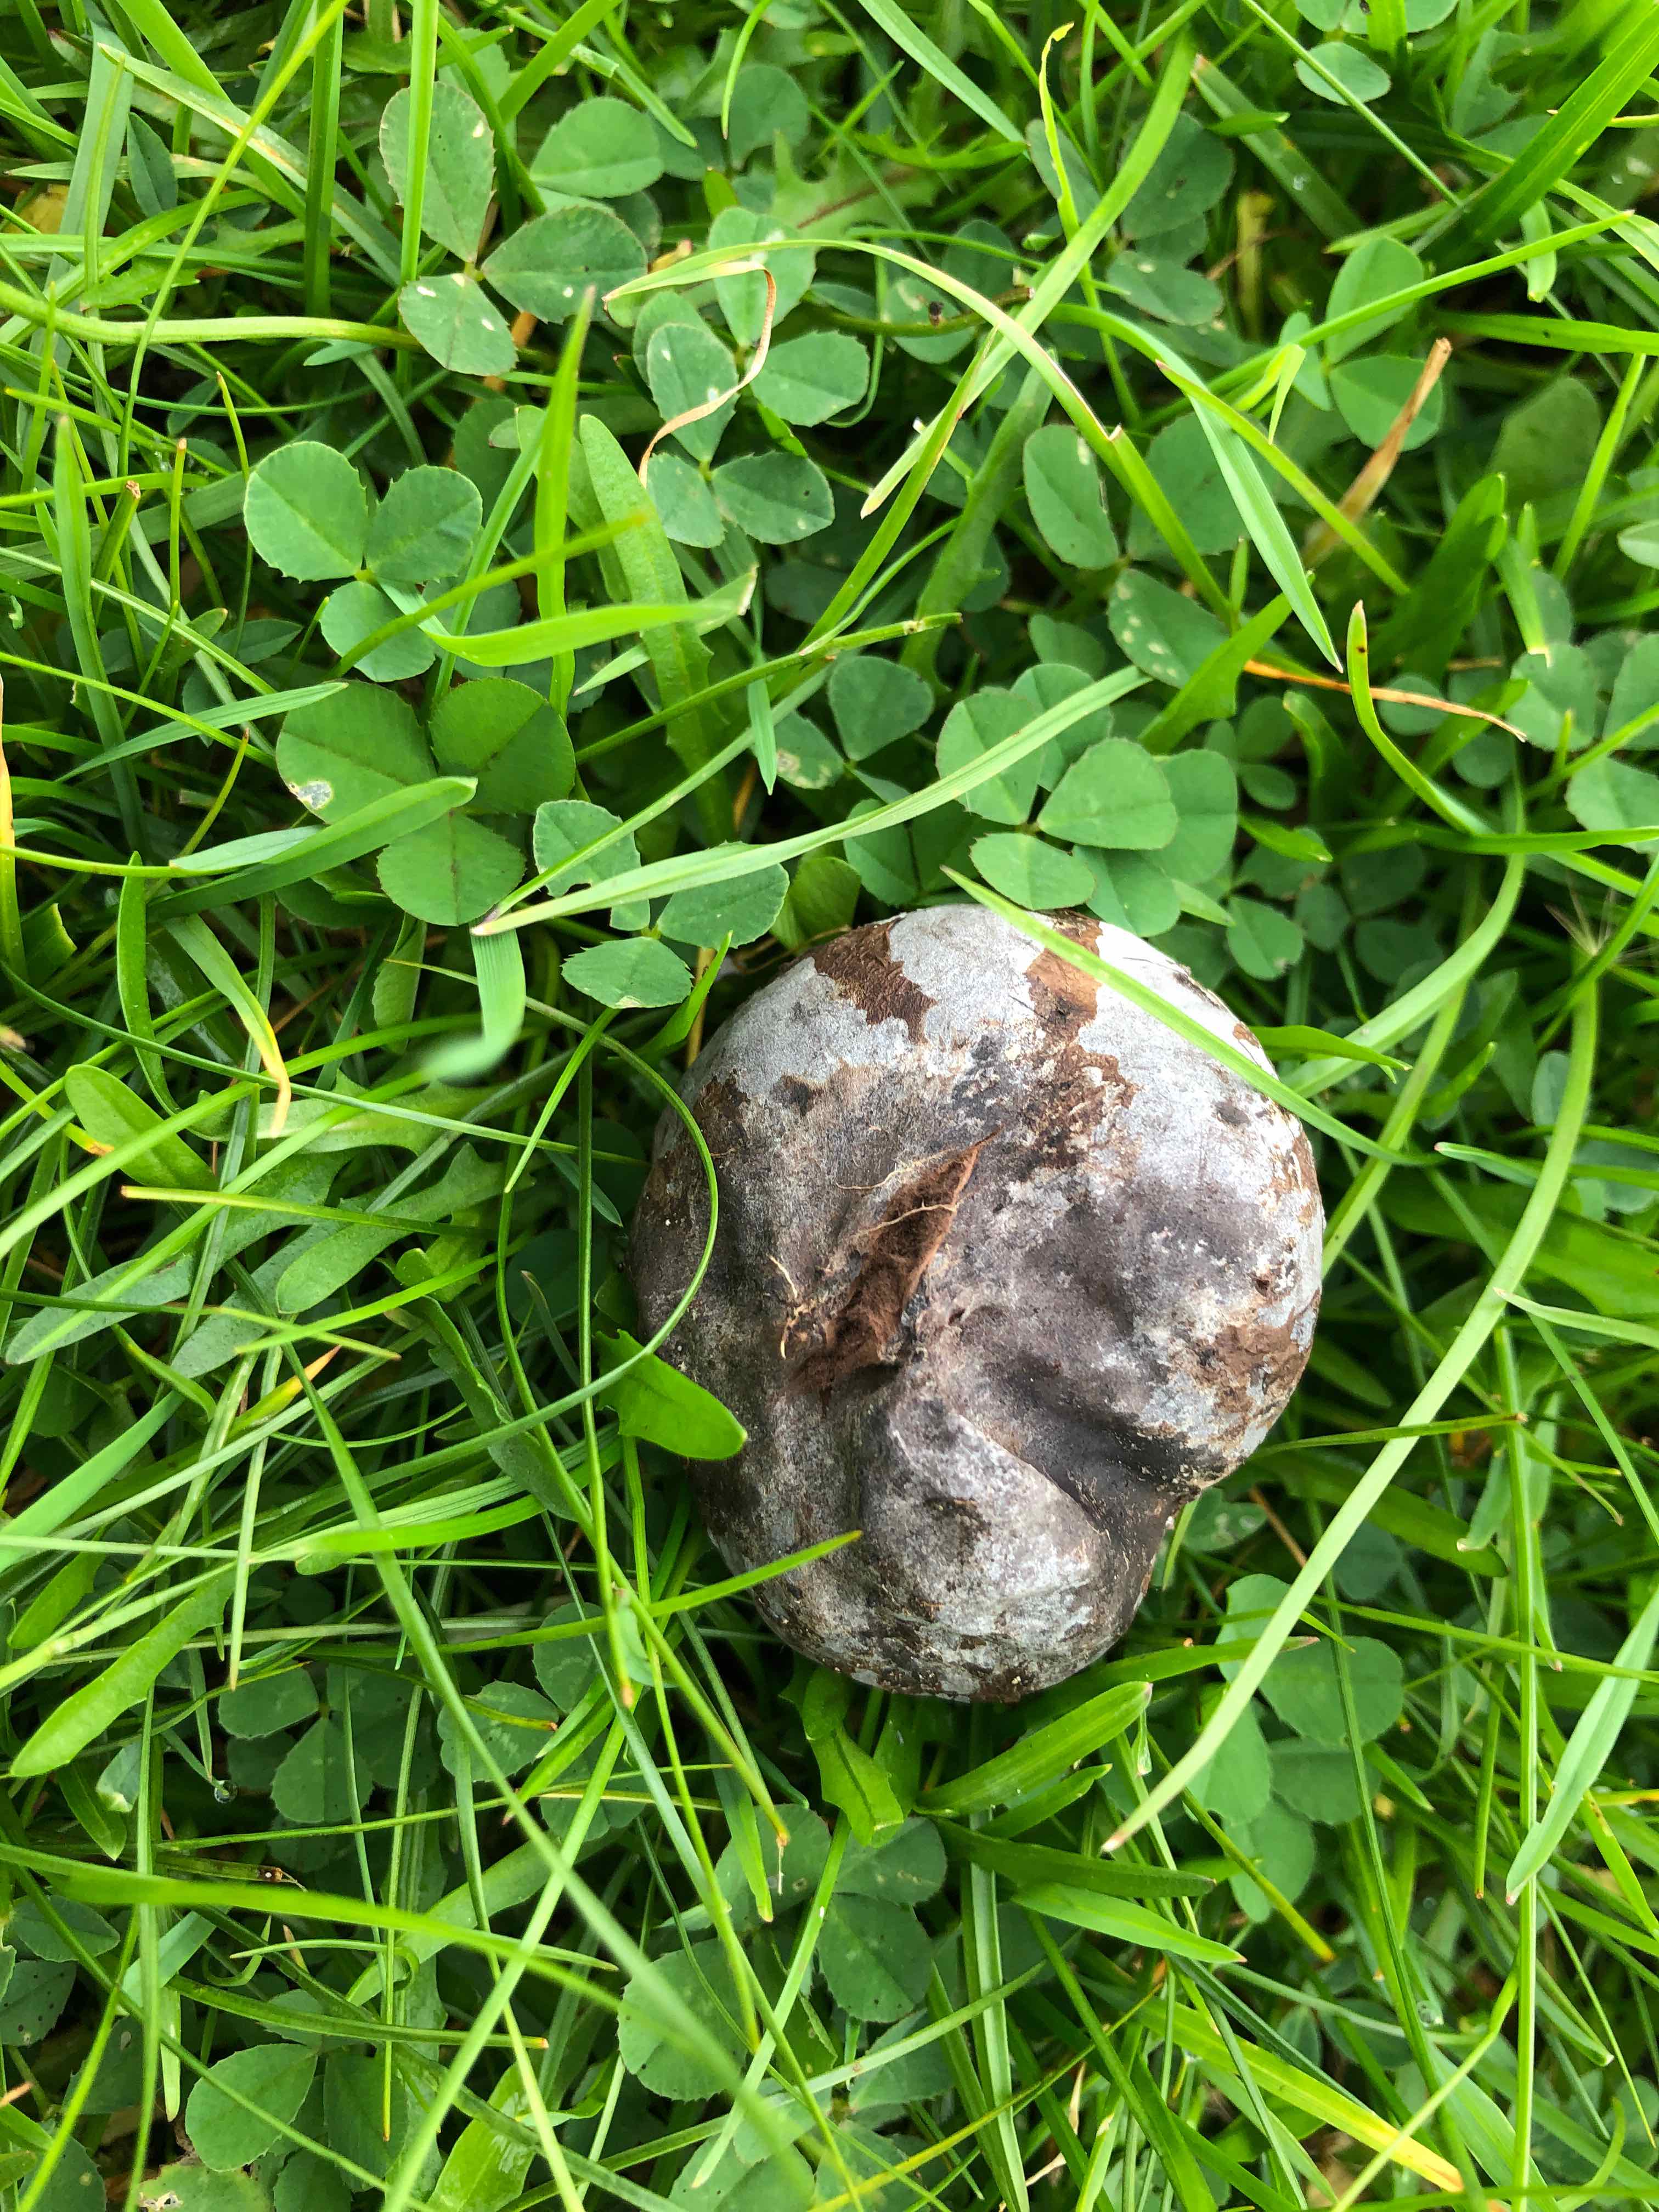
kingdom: Fungi
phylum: Basidiomycota
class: Agaricomycetes
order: Agaricales
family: Lycoperdaceae
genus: Bovista
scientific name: Bovista plumbea
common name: blygrå bovist
